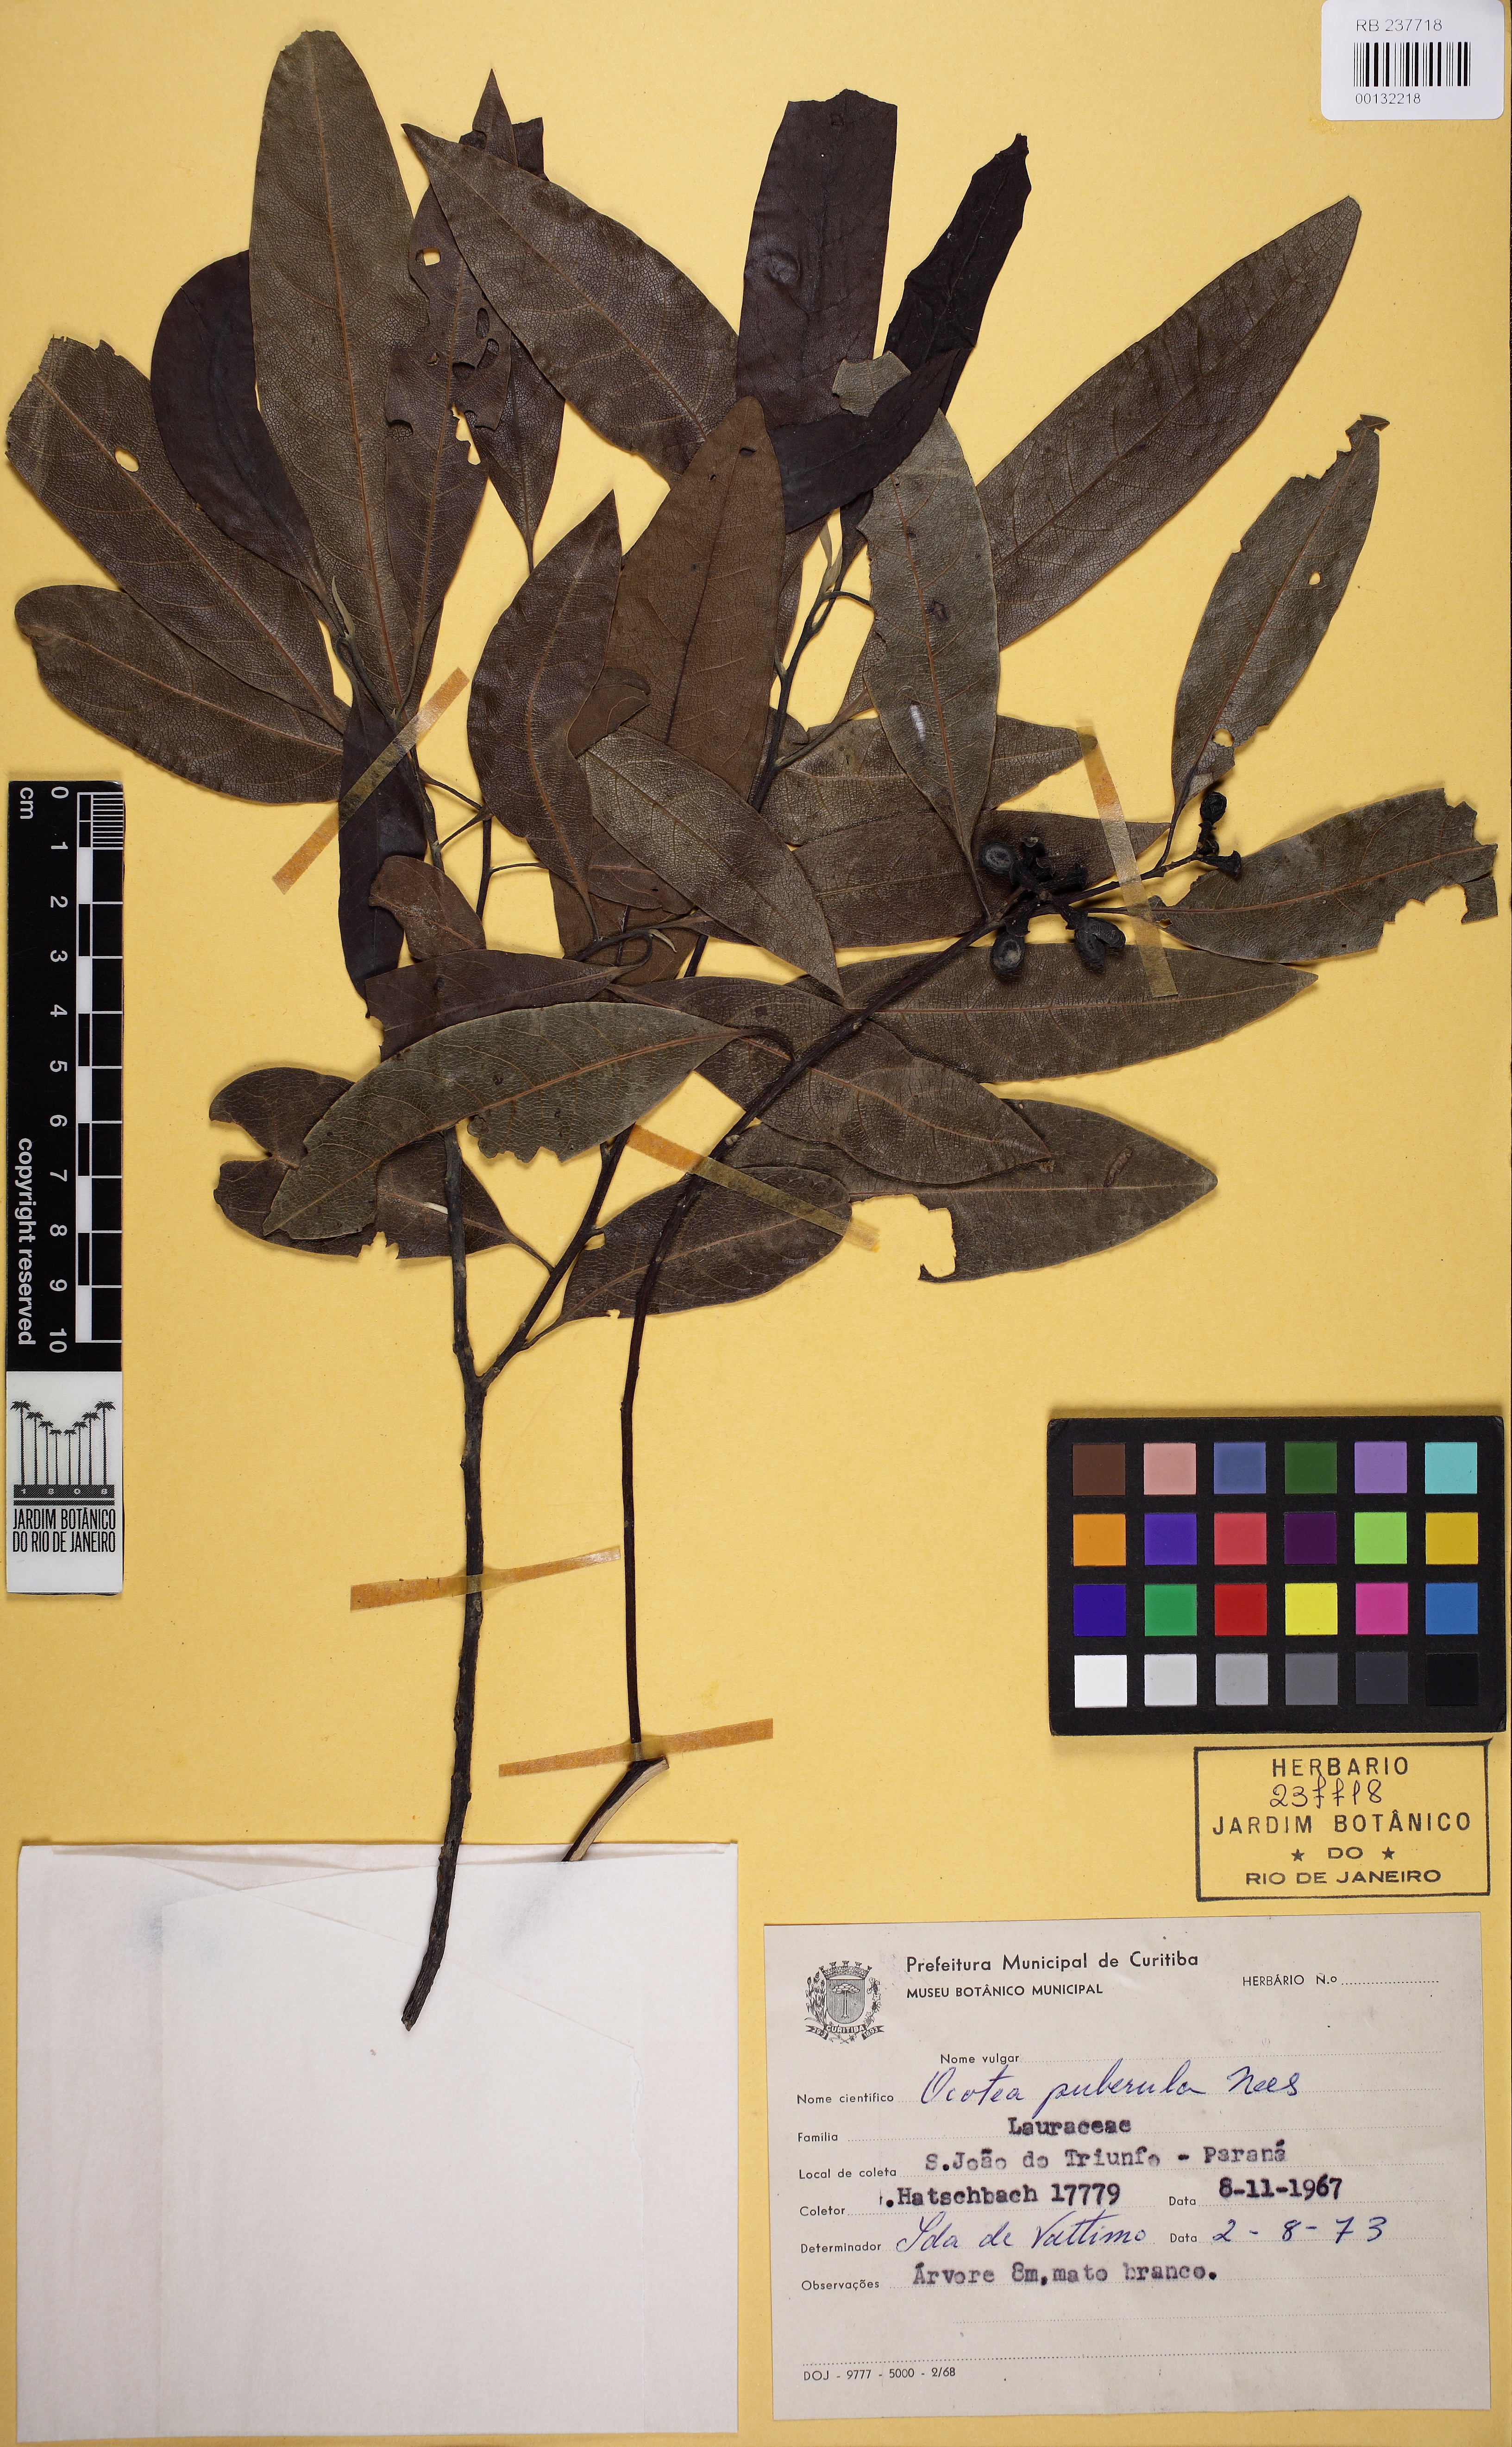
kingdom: Plantae
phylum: Tracheophyta
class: Magnoliopsida
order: Laurales
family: Lauraceae
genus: Ocotea
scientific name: Ocotea puberula
